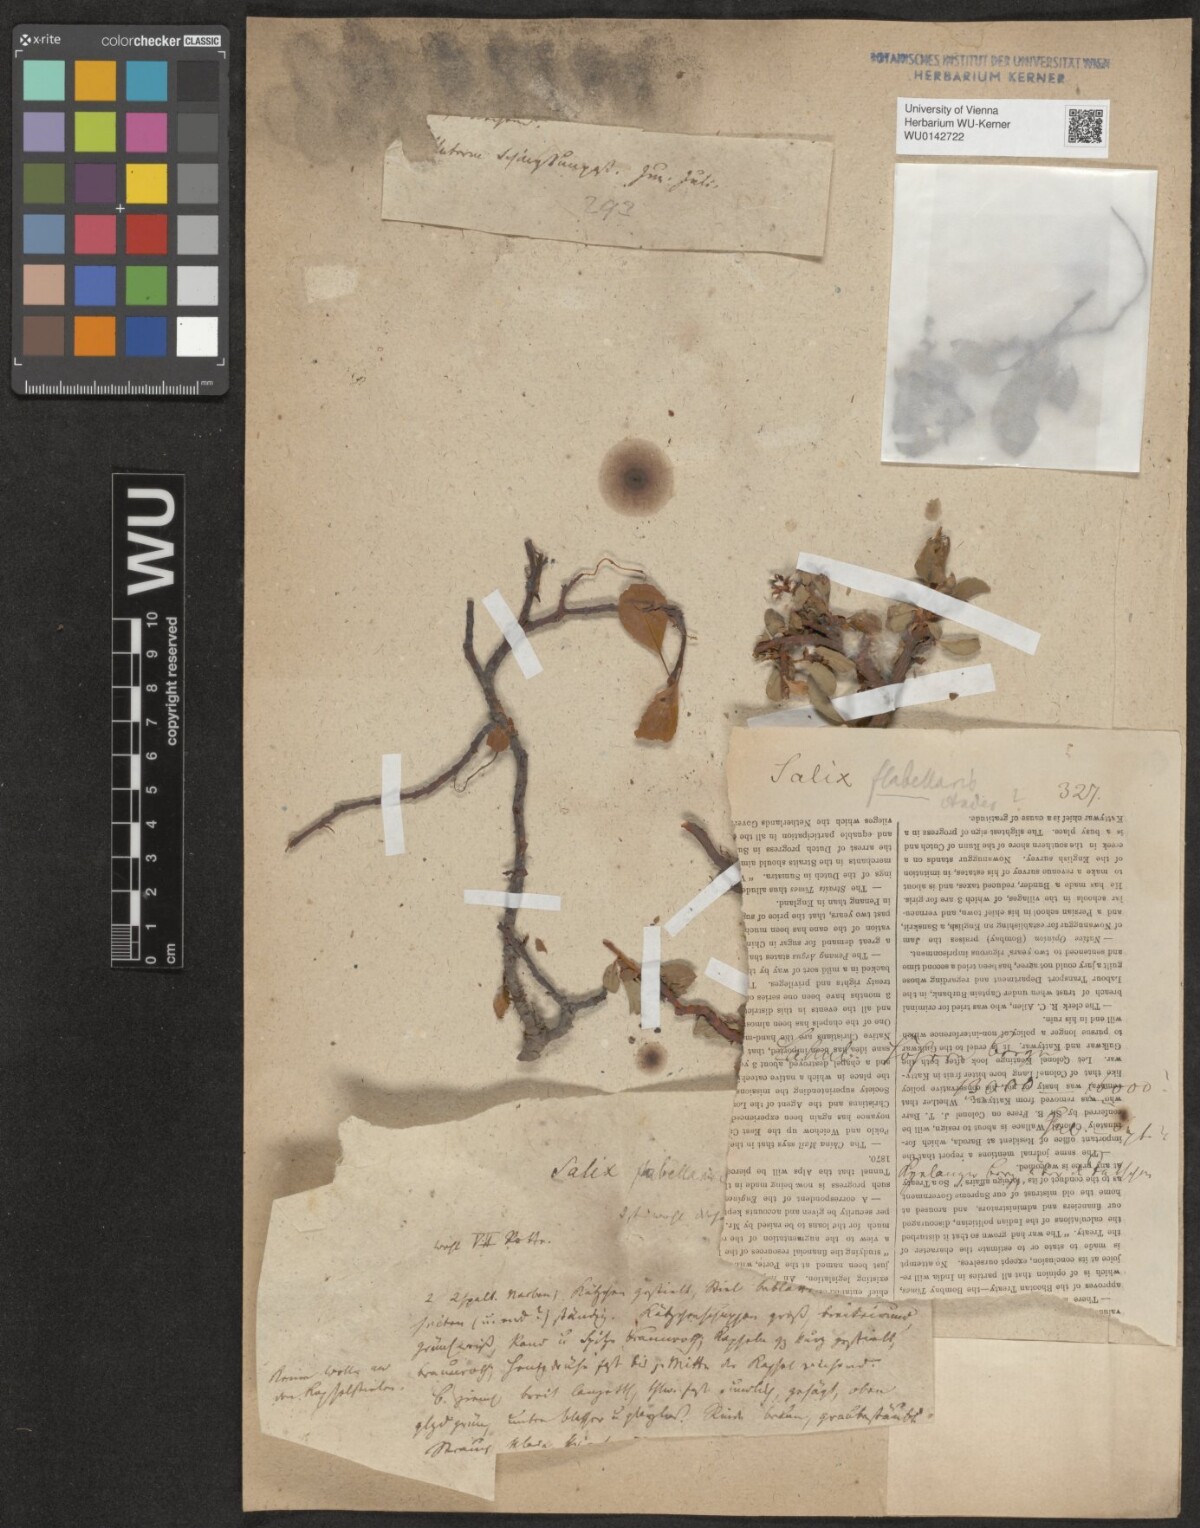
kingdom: Plantae
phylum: Tracheophyta
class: Magnoliopsida
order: Malpighiales
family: Salicaceae
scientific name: Salicaceae
